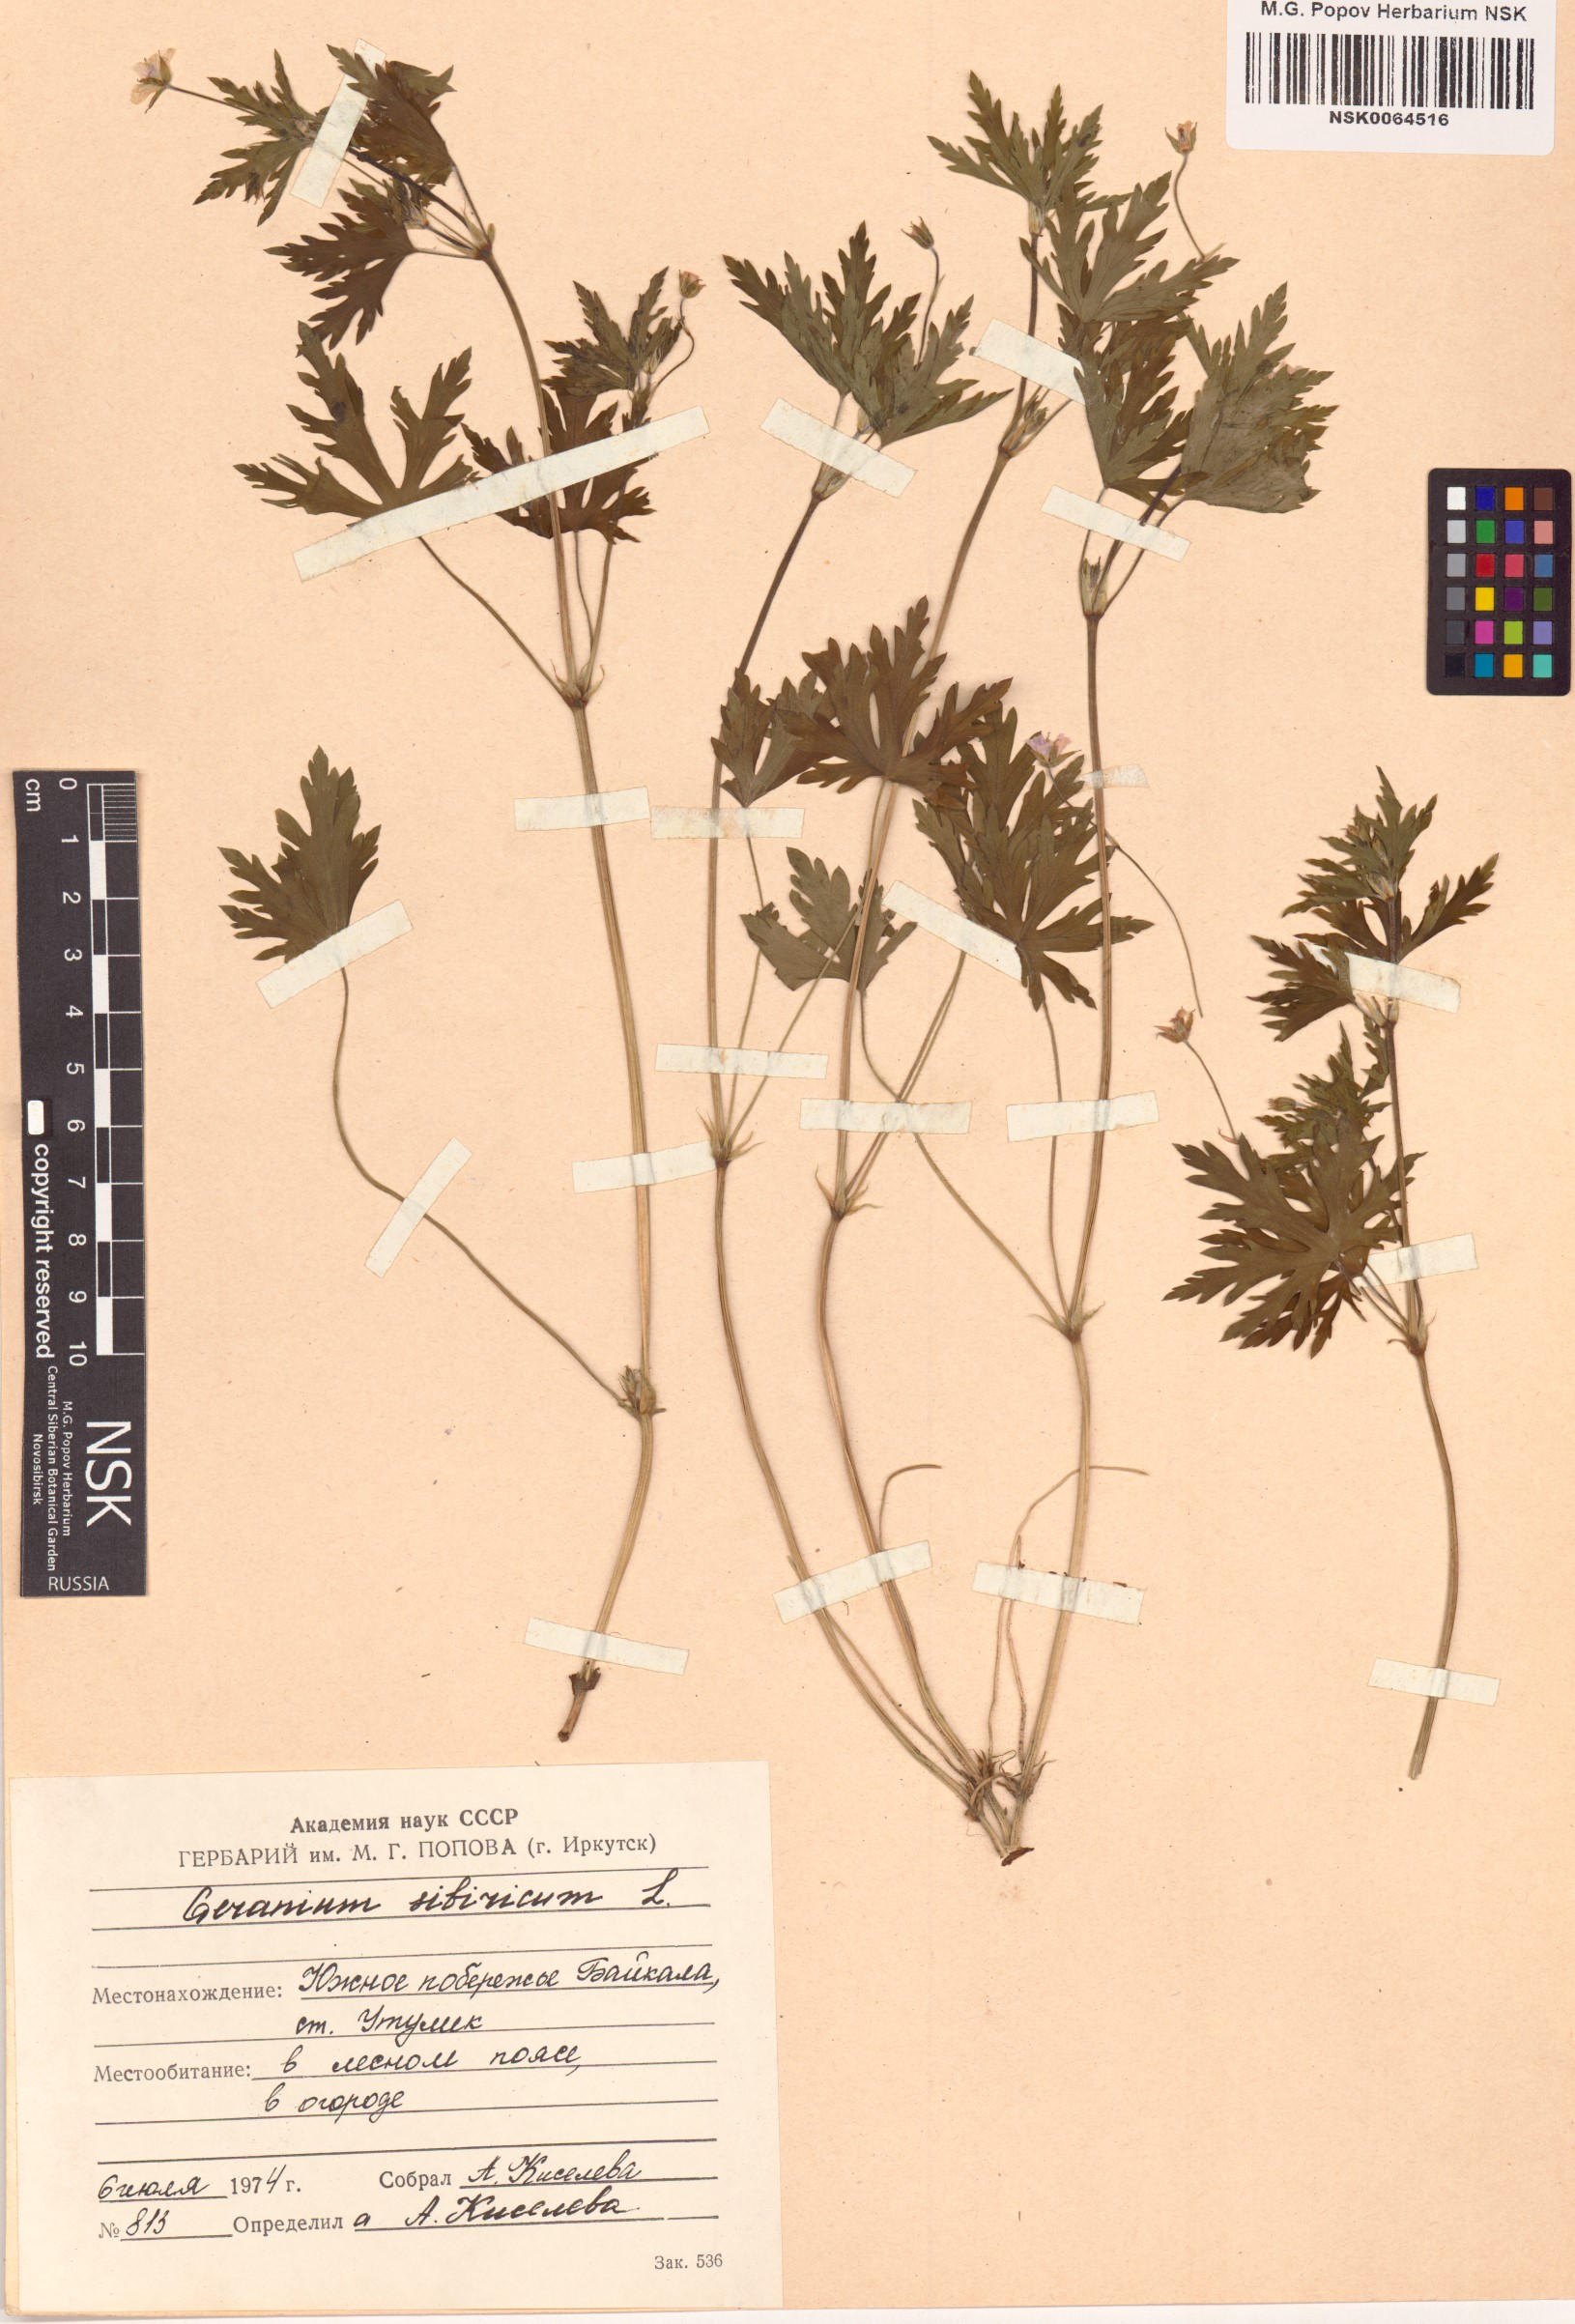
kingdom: Plantae
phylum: Tracheophyta
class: Magnoliopsida
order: Geraniales
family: Geraniaceae
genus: Geranium
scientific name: Geranium sibiricum
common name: Siberian crane's-bill
